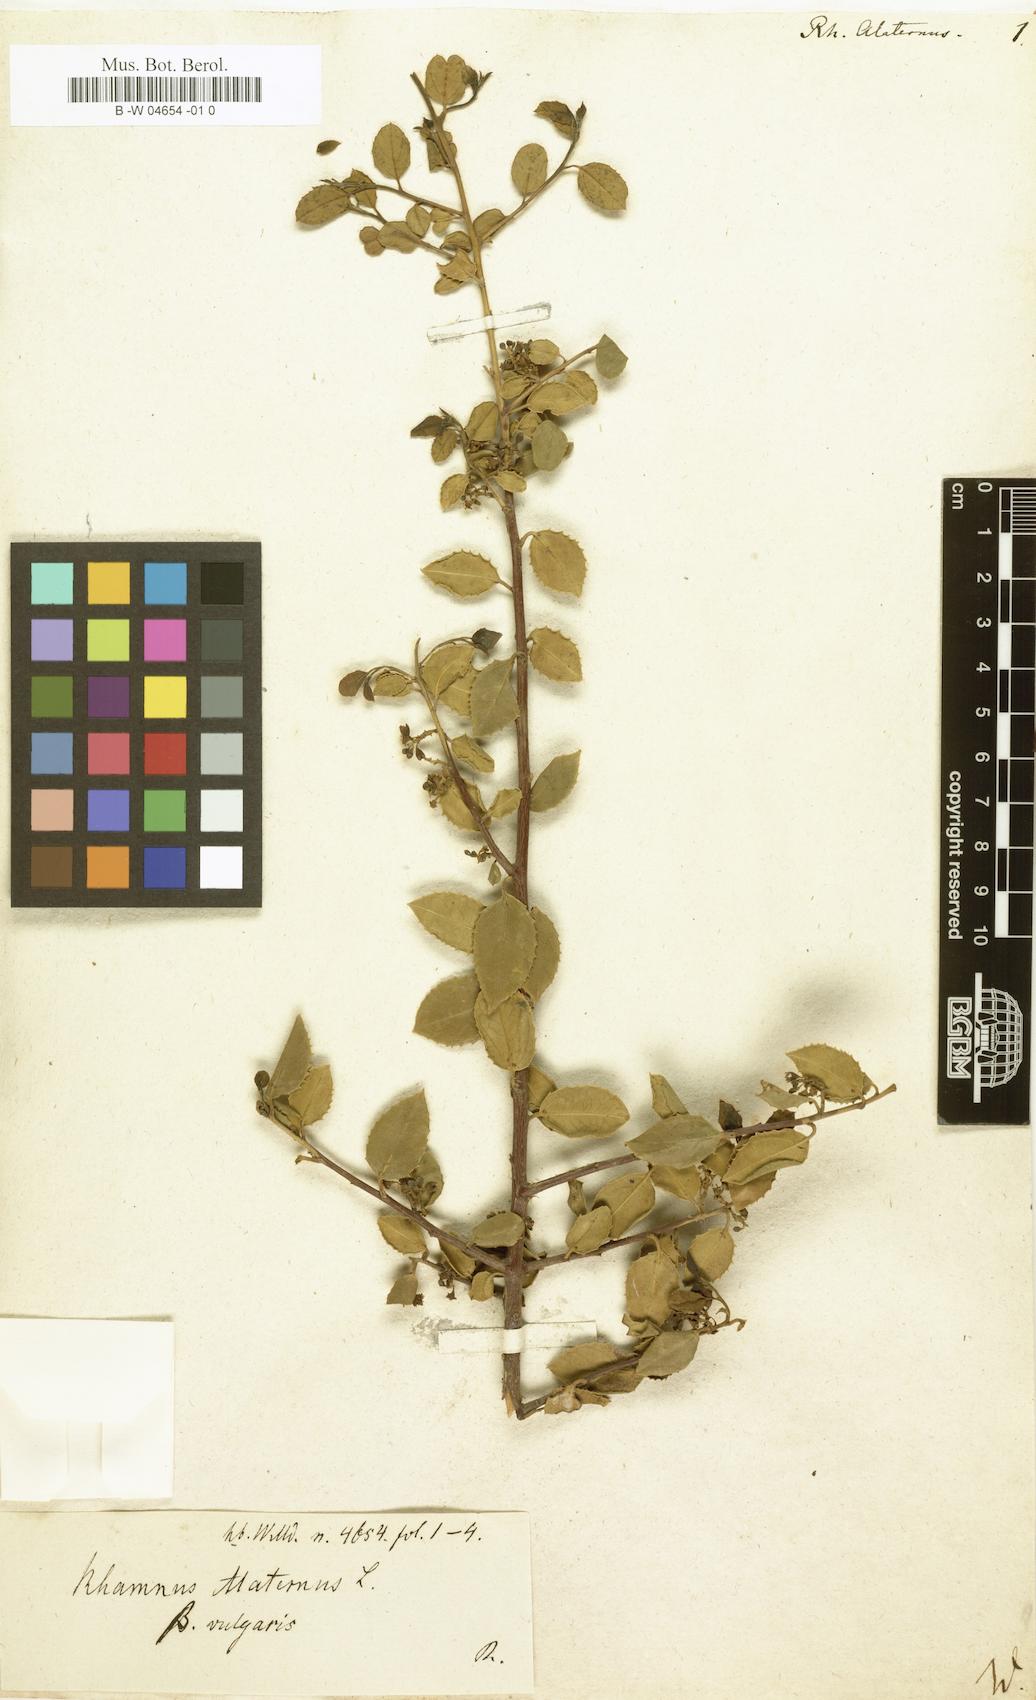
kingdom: Plantae
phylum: Tracheophyta
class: Magnoliopsida
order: Rosales
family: Rhamnaceae
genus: Rhamnus
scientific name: Rhamnus alaternus
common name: Mediterranean buckthorn
